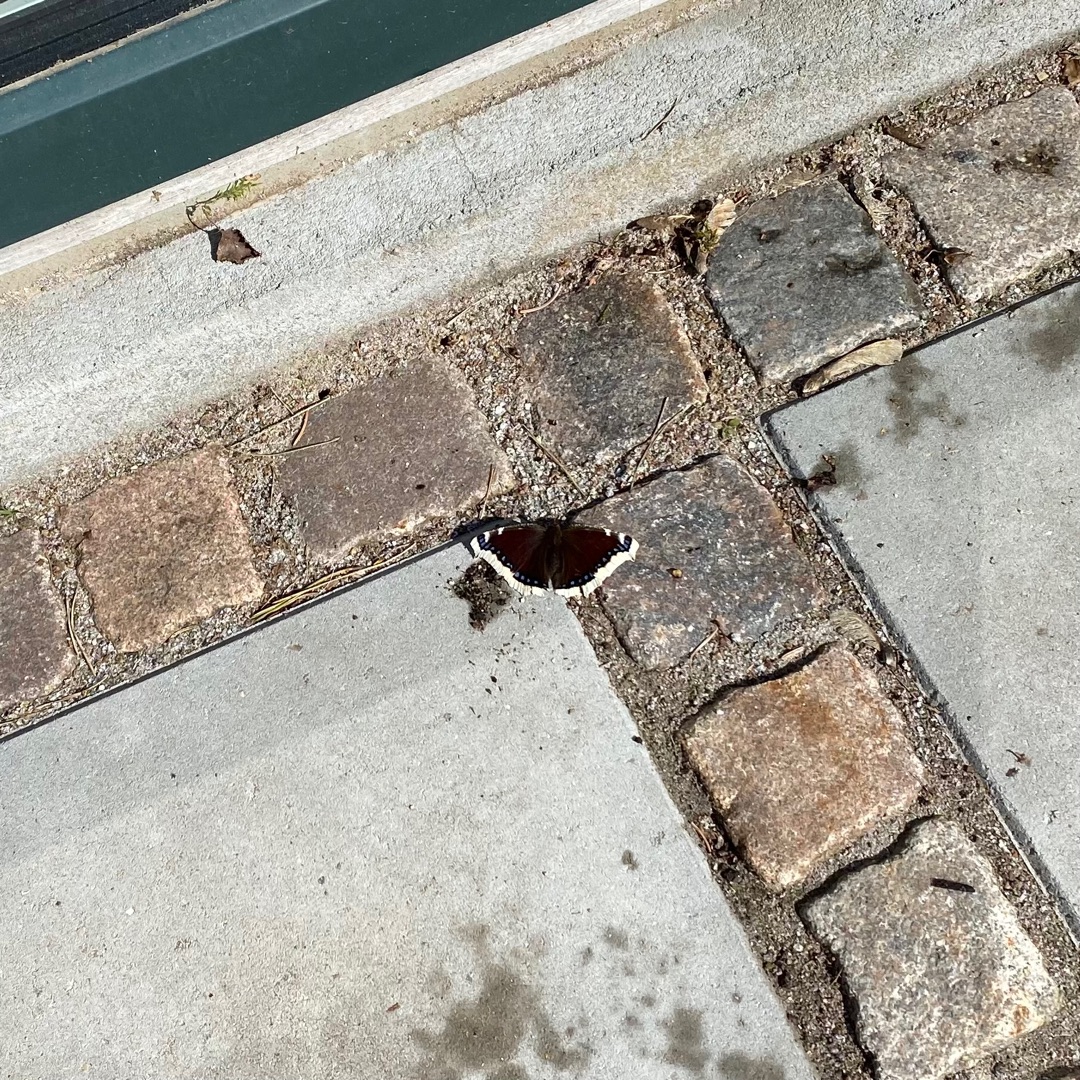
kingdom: Animalia
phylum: Arthropoda
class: Insecta
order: Lepidoptera
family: Nymphalidae
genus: Nymphalis
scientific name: Nymphalis antiopa
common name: Sørgekåbe
